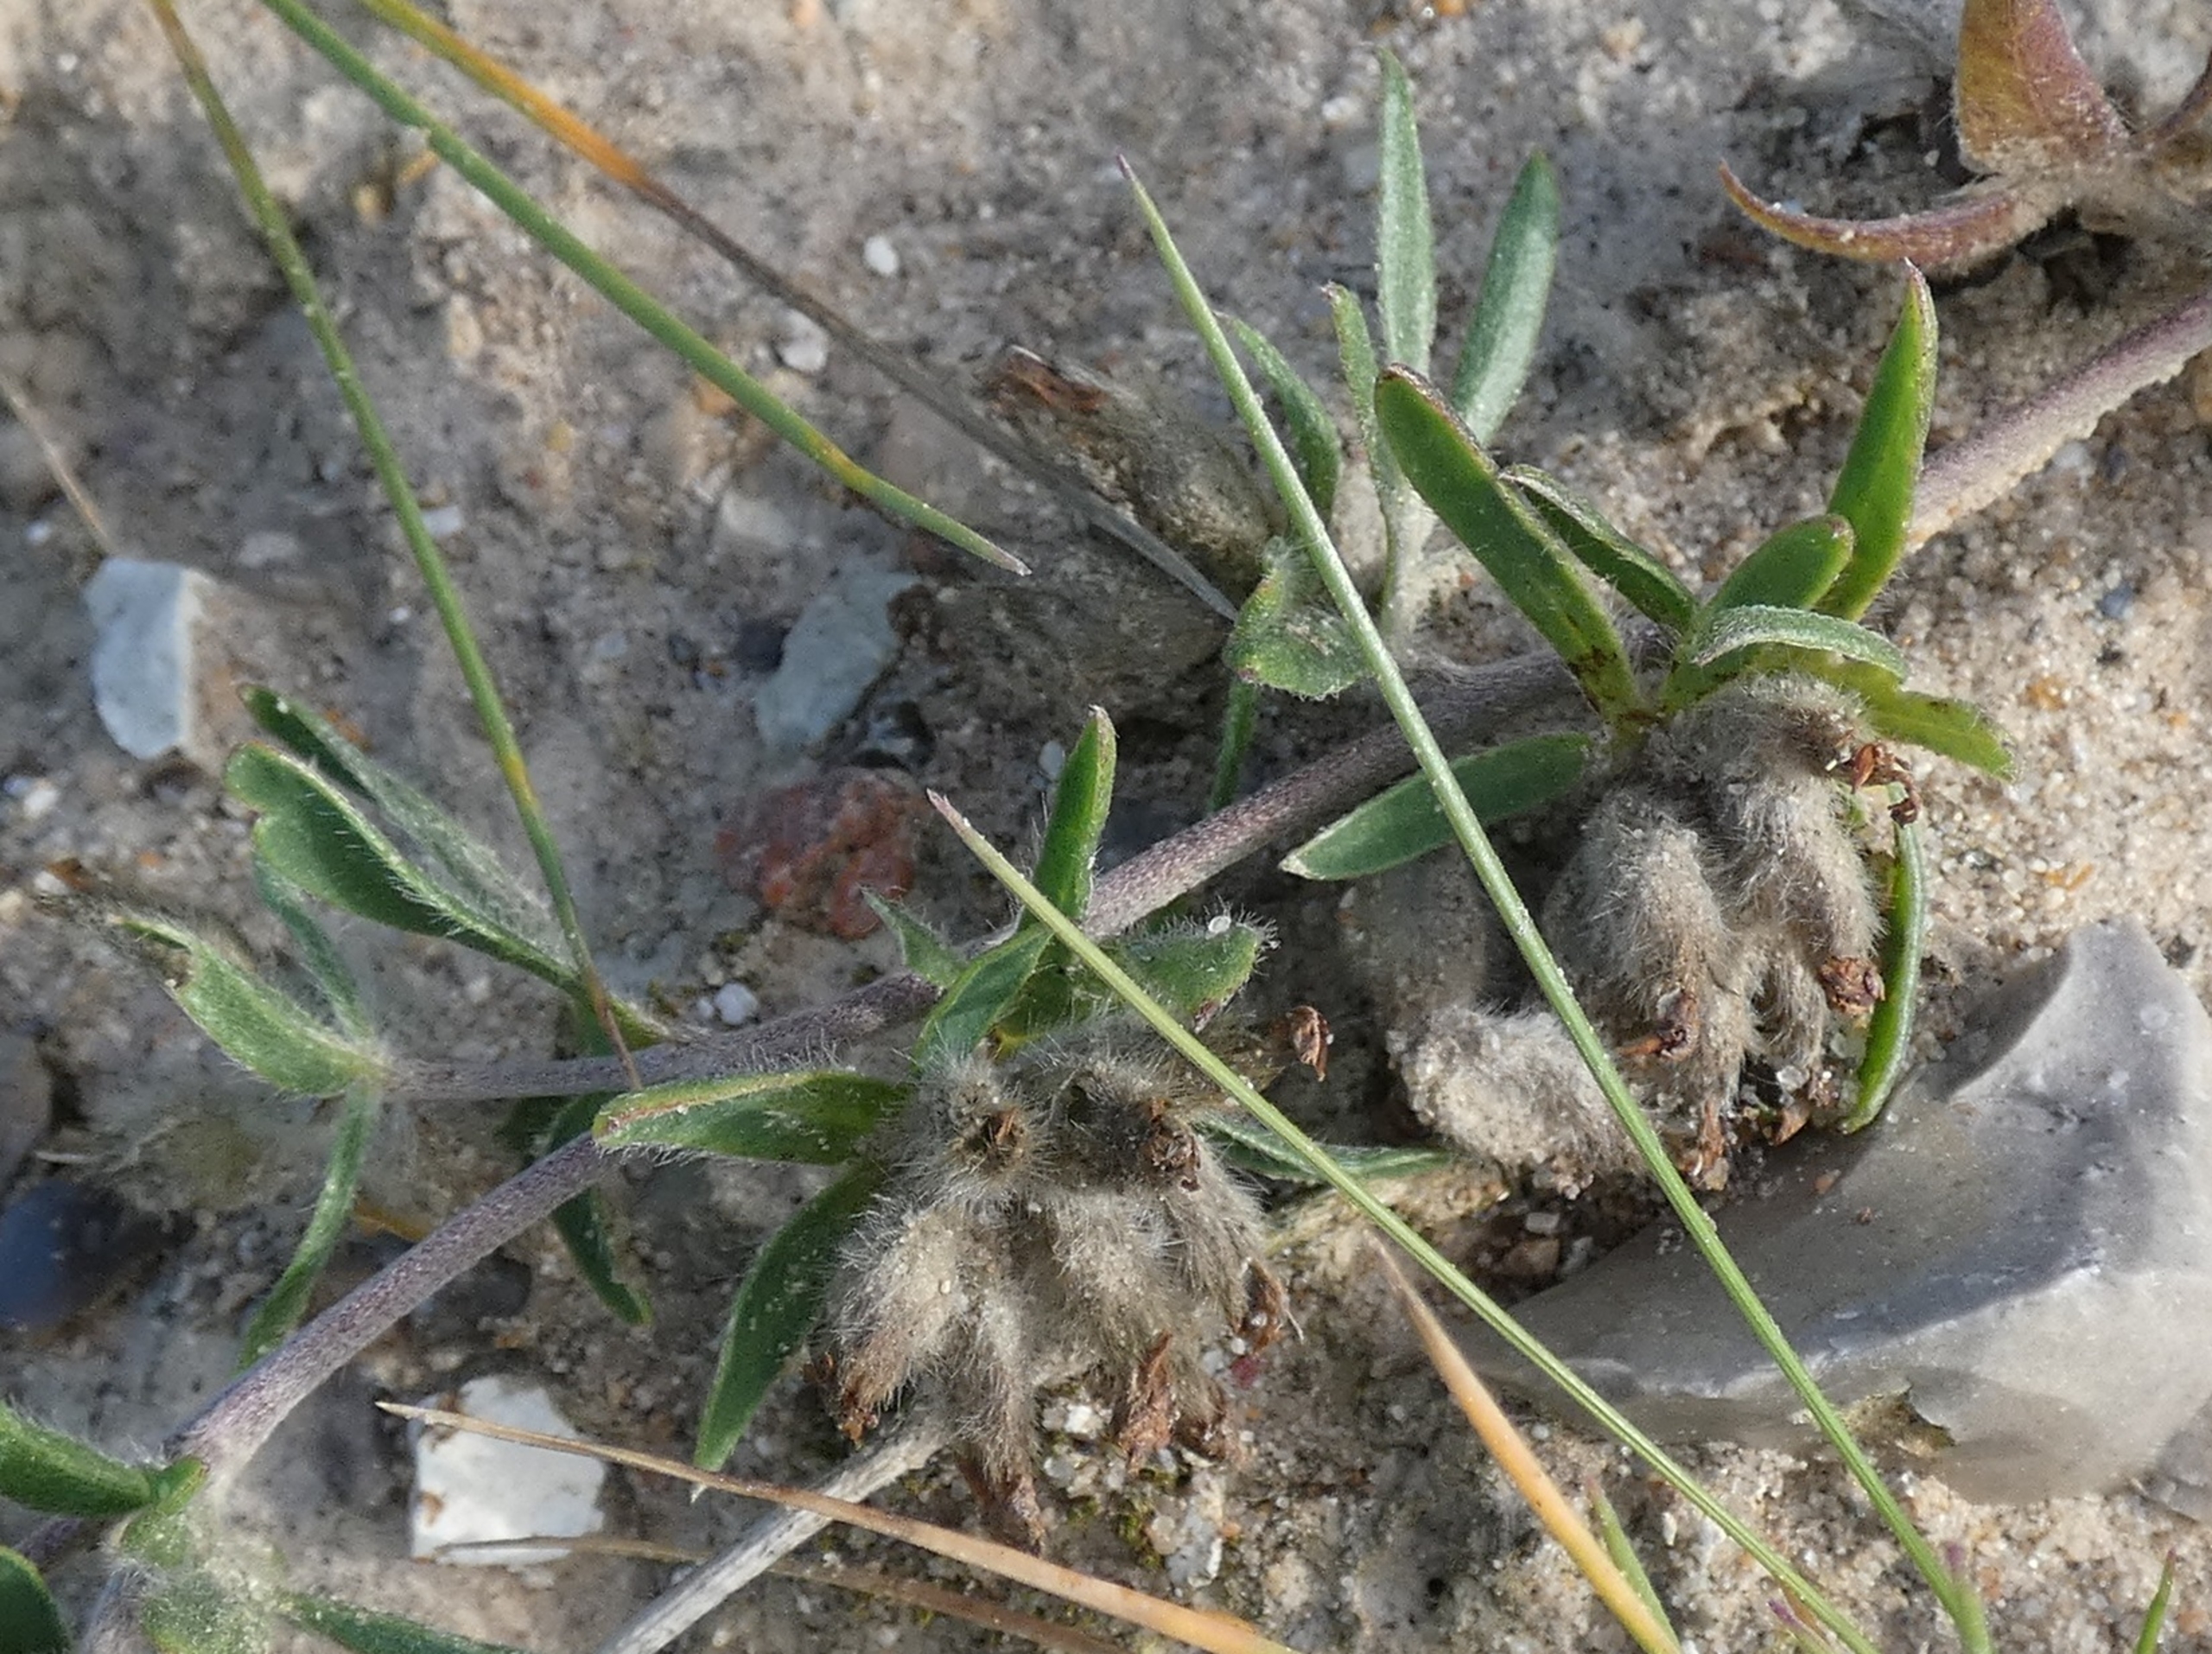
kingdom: Plantae
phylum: Tracheophyta
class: Magnoliopsida
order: Fabales
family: Fabaceae
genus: Anthyllis
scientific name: Anthyllis vulneraria
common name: Klit-rundbælg
